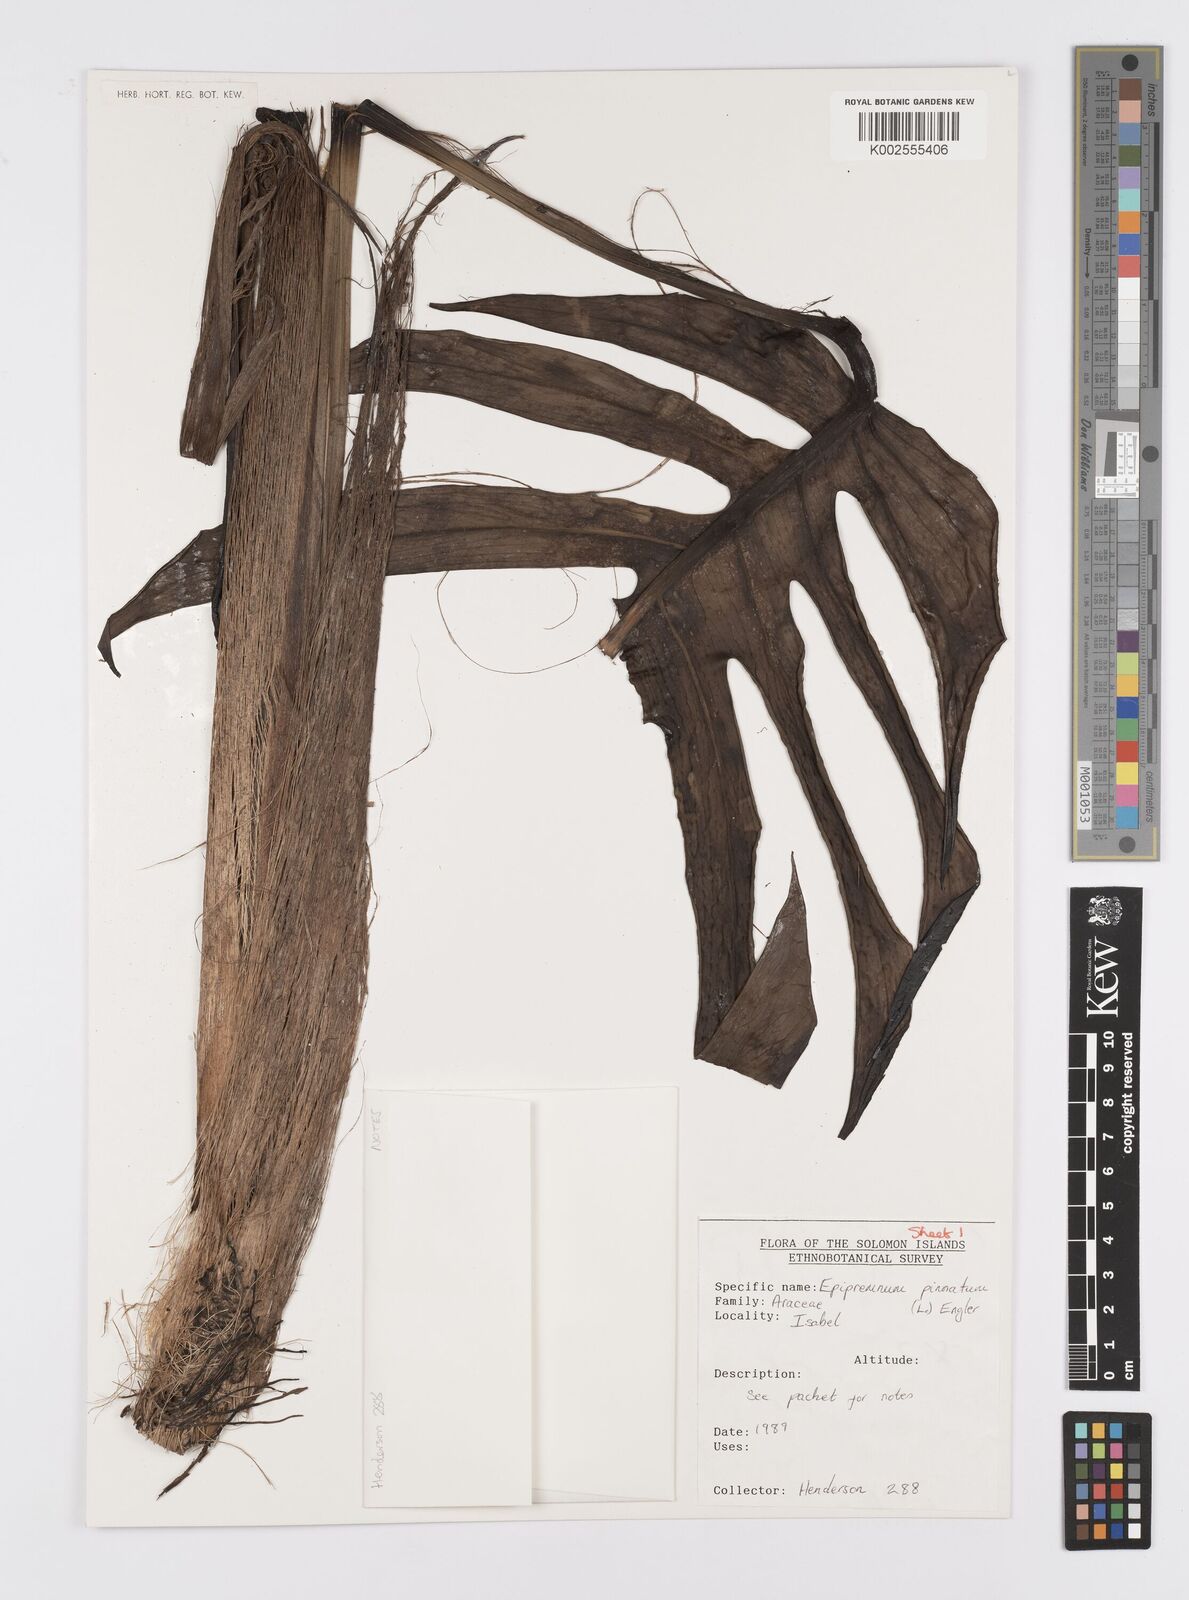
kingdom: Plantae
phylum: Tracheophyta
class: Liliopsida
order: Alismatales
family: Araceae
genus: Epipremnum
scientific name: Epipremnum pinnatum
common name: Centipede tongavine
